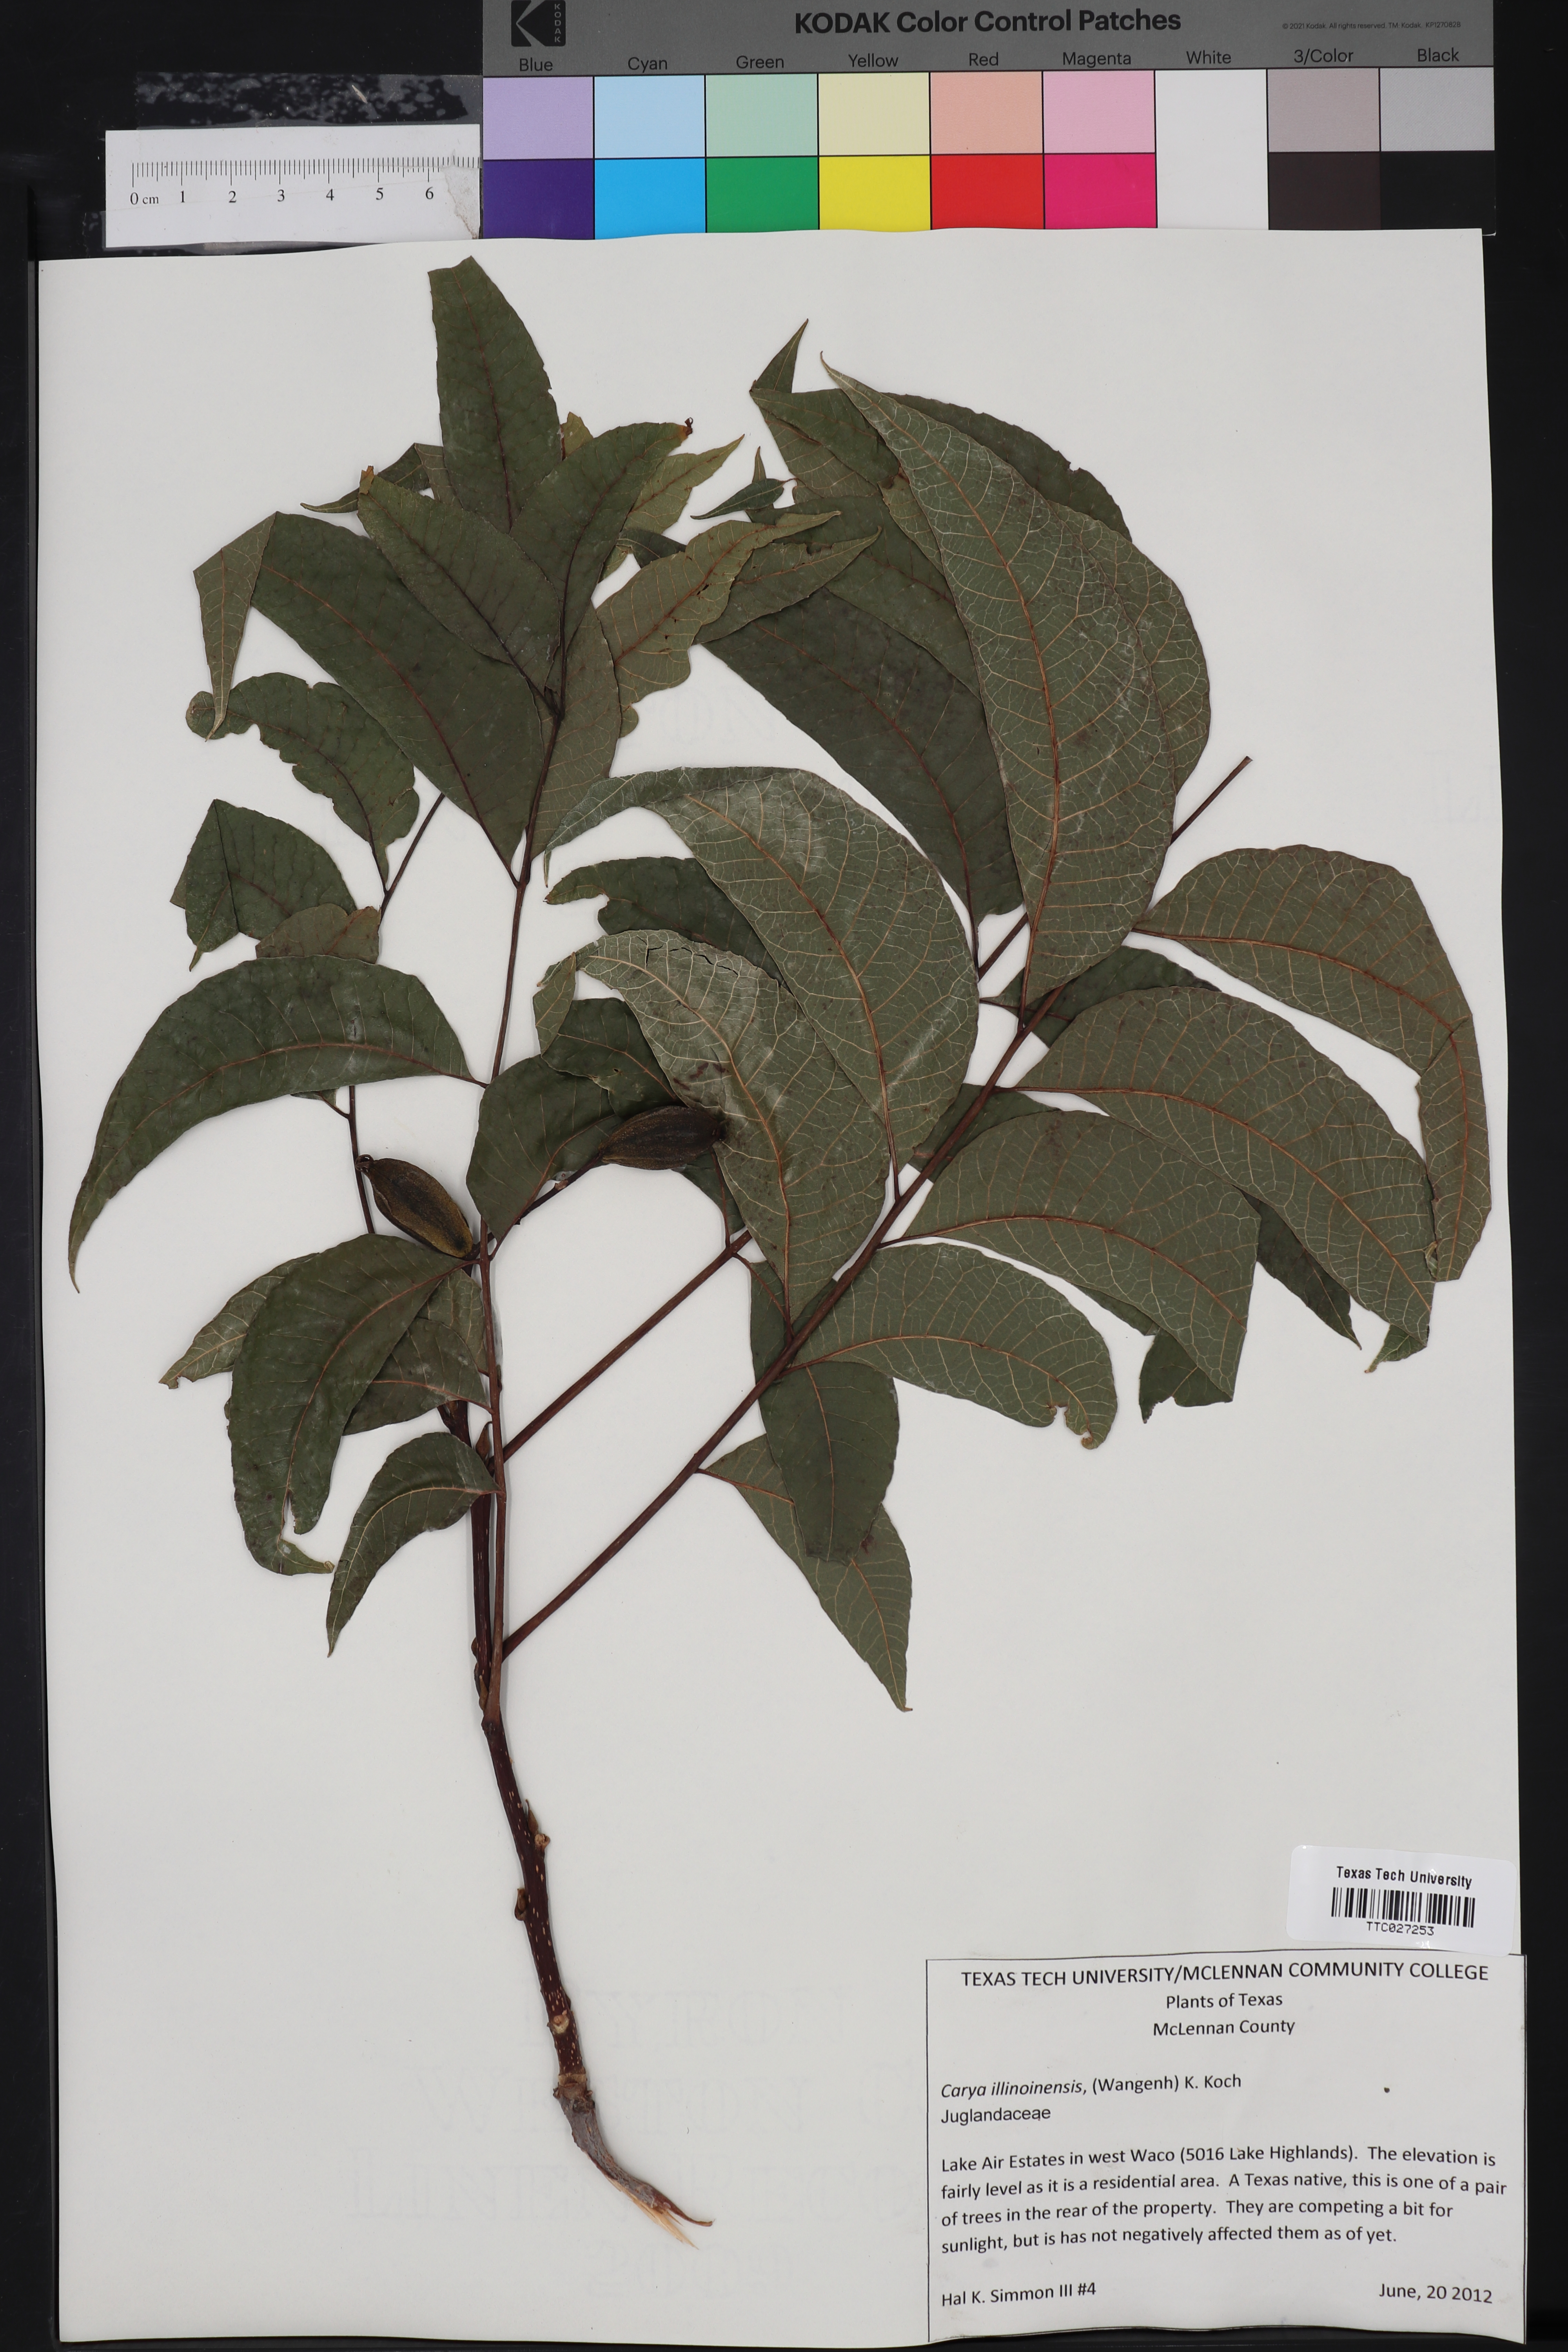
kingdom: Plantae
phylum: Tracheophyta
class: Magnoliopsida
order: Fagales
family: Juglandaceae
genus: Carya
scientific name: Carya
